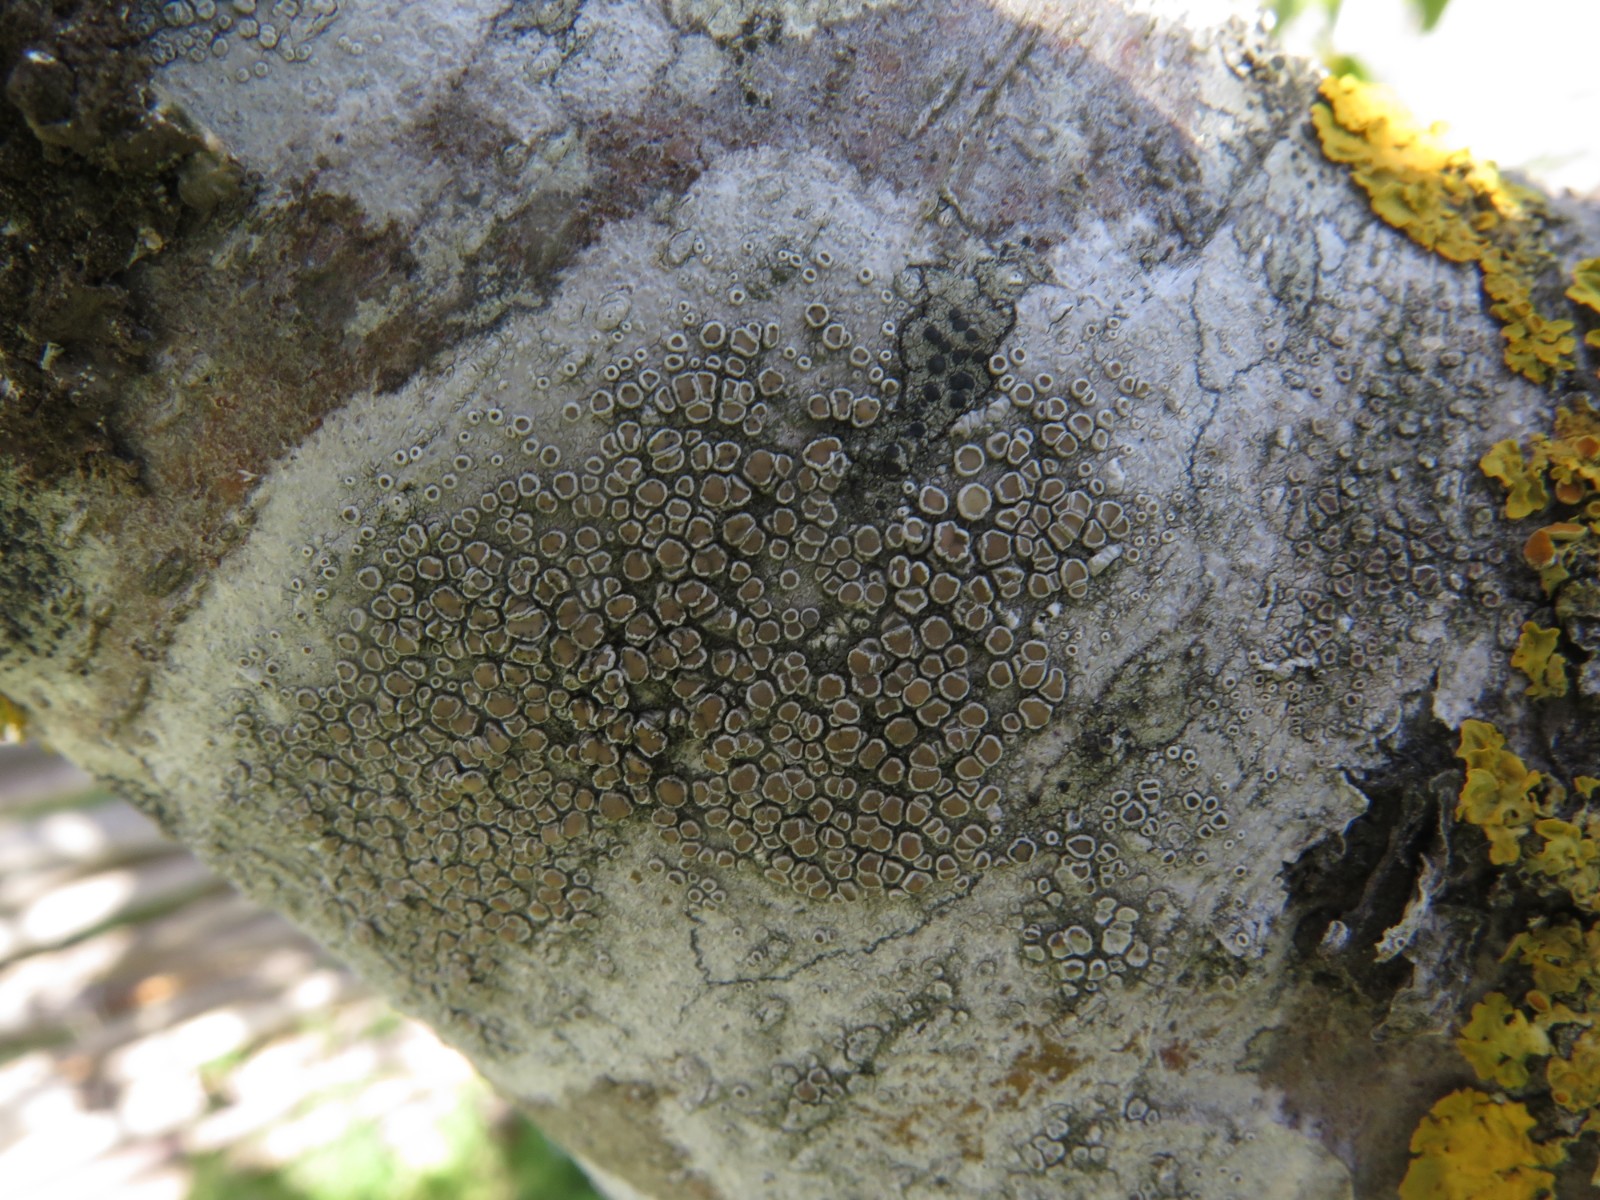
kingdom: Fungi
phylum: Ascomycota
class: Lecanoromycetes
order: Lecanorales
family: Lecanoraceae
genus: Lecanora
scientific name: Lecanora chlarotera
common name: brun kantskivelav
